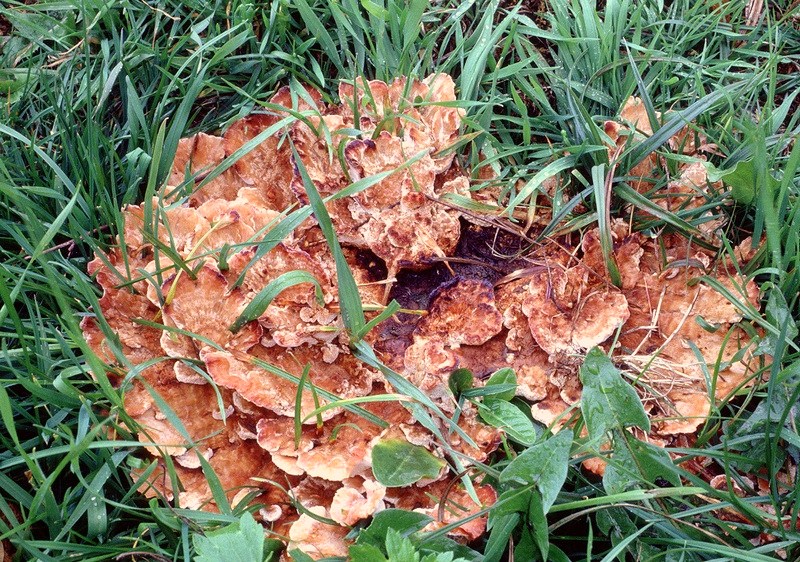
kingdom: Fungi
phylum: Basidiomycota
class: Agaricomycetes
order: Polyporales
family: Podoscyphaceae
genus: Abortiporus
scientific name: Abortiporus biennis
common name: rødmende pjalteporesvamp
